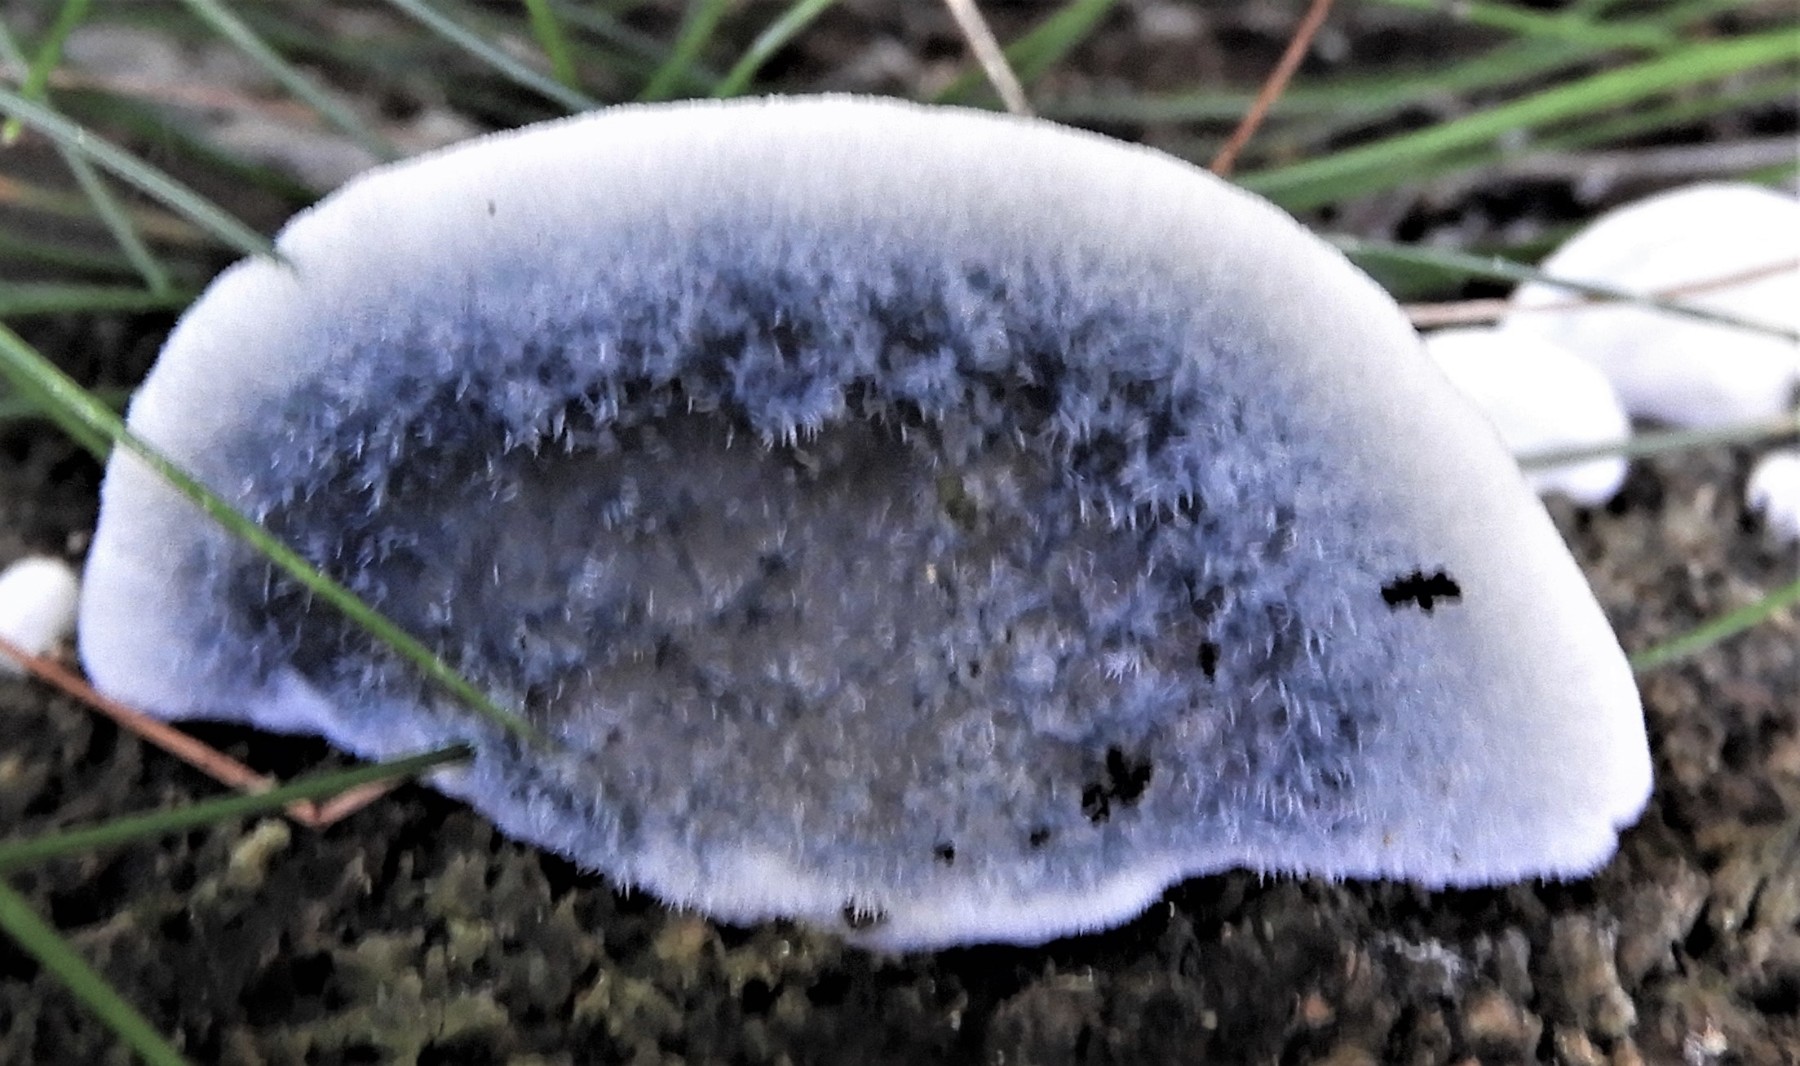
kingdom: Fungi
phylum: Basidiomycota
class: Agaricomycetes
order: Polyporales
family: Polyporaceae
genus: Cyanosporus
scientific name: Cyanosporus caesius
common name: blålig kødporesvamp
